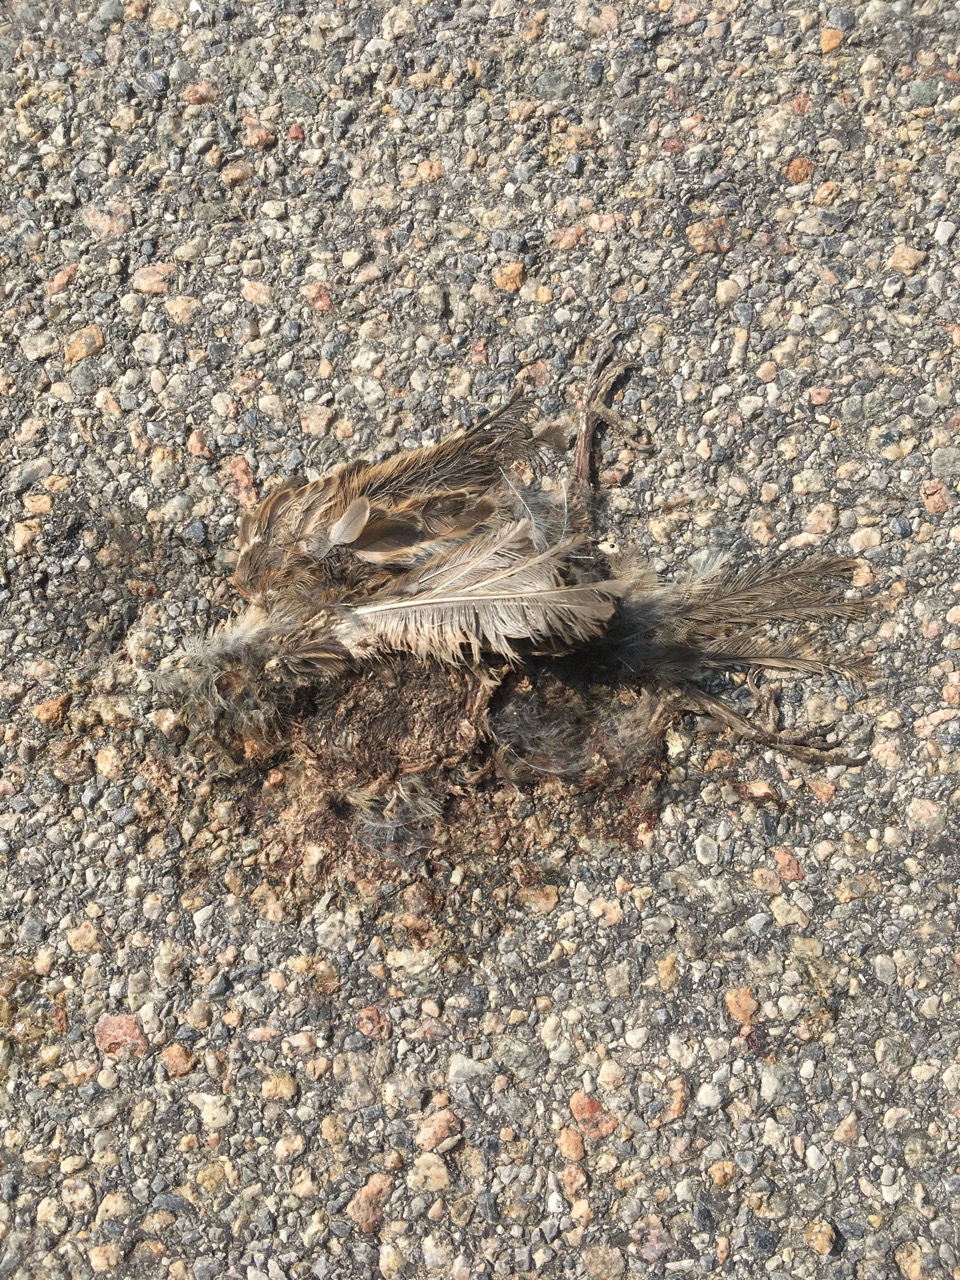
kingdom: Animalia
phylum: Chordata
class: Aves
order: Passeriformes
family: Passeridae
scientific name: Passeridae
